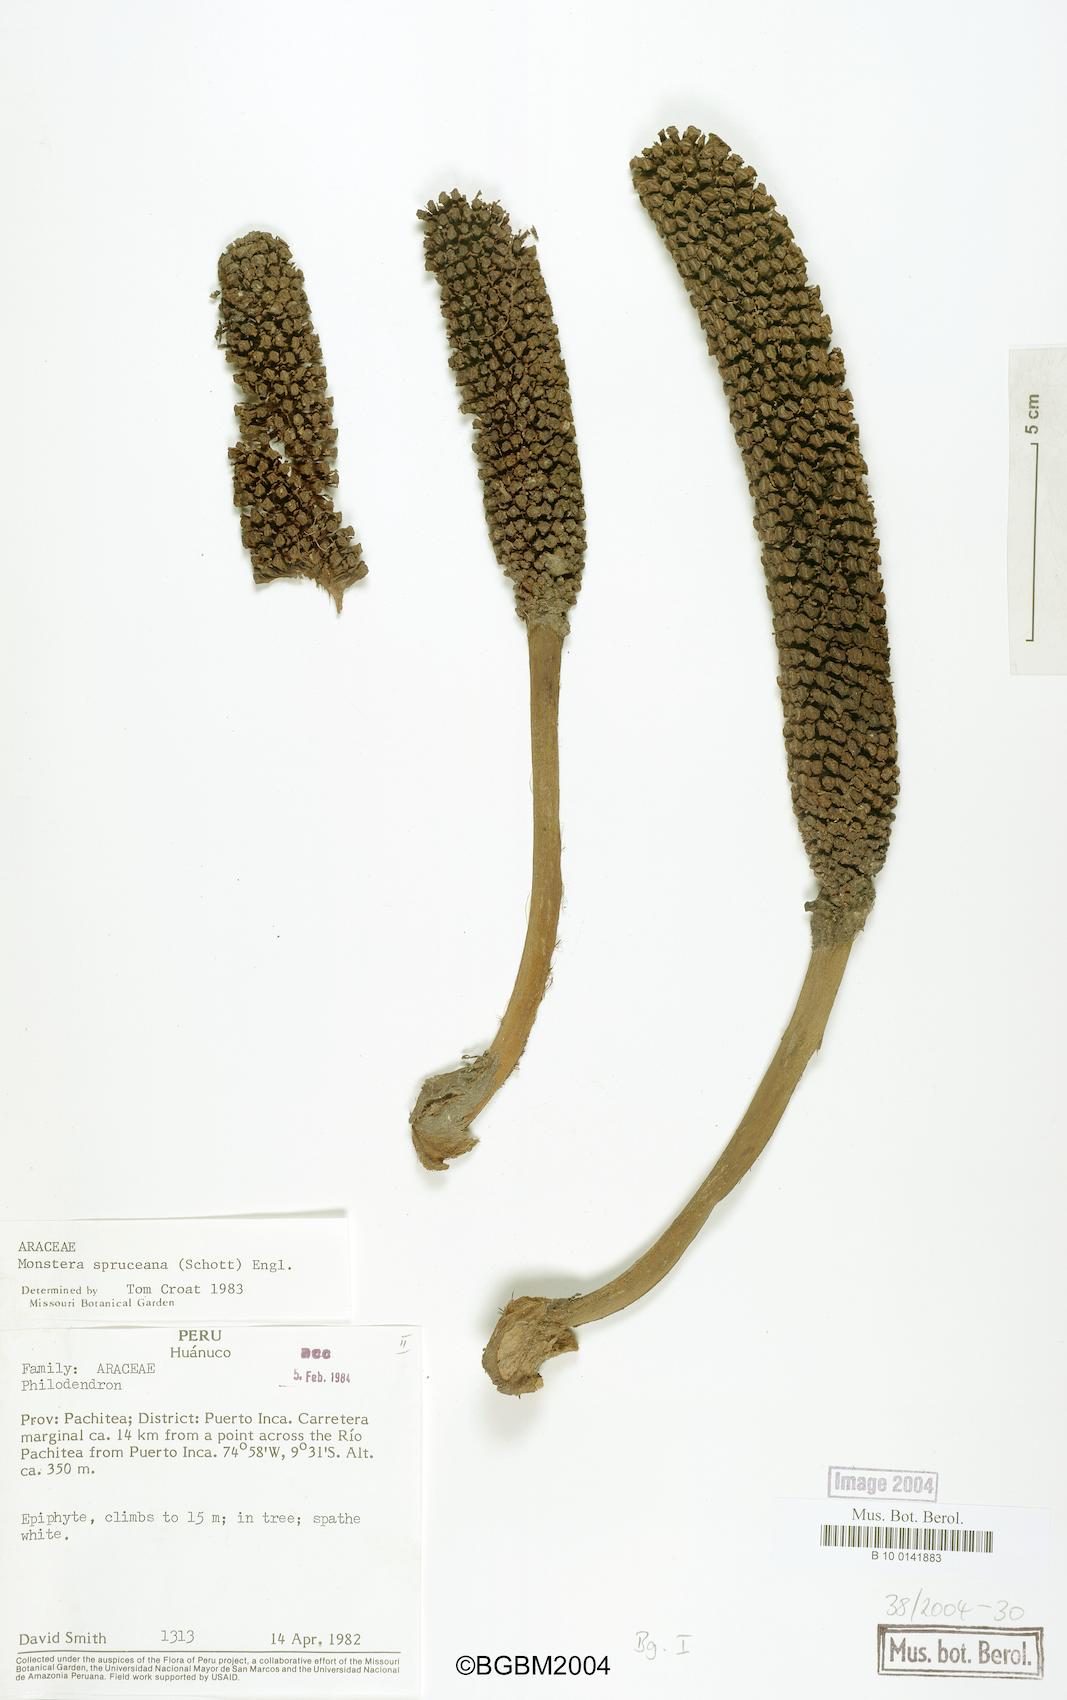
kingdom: Plantae
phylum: Tracheophyta
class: Liliopsida
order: Alismatales
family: Araceae
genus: Monstera
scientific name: Monstera spruceana
